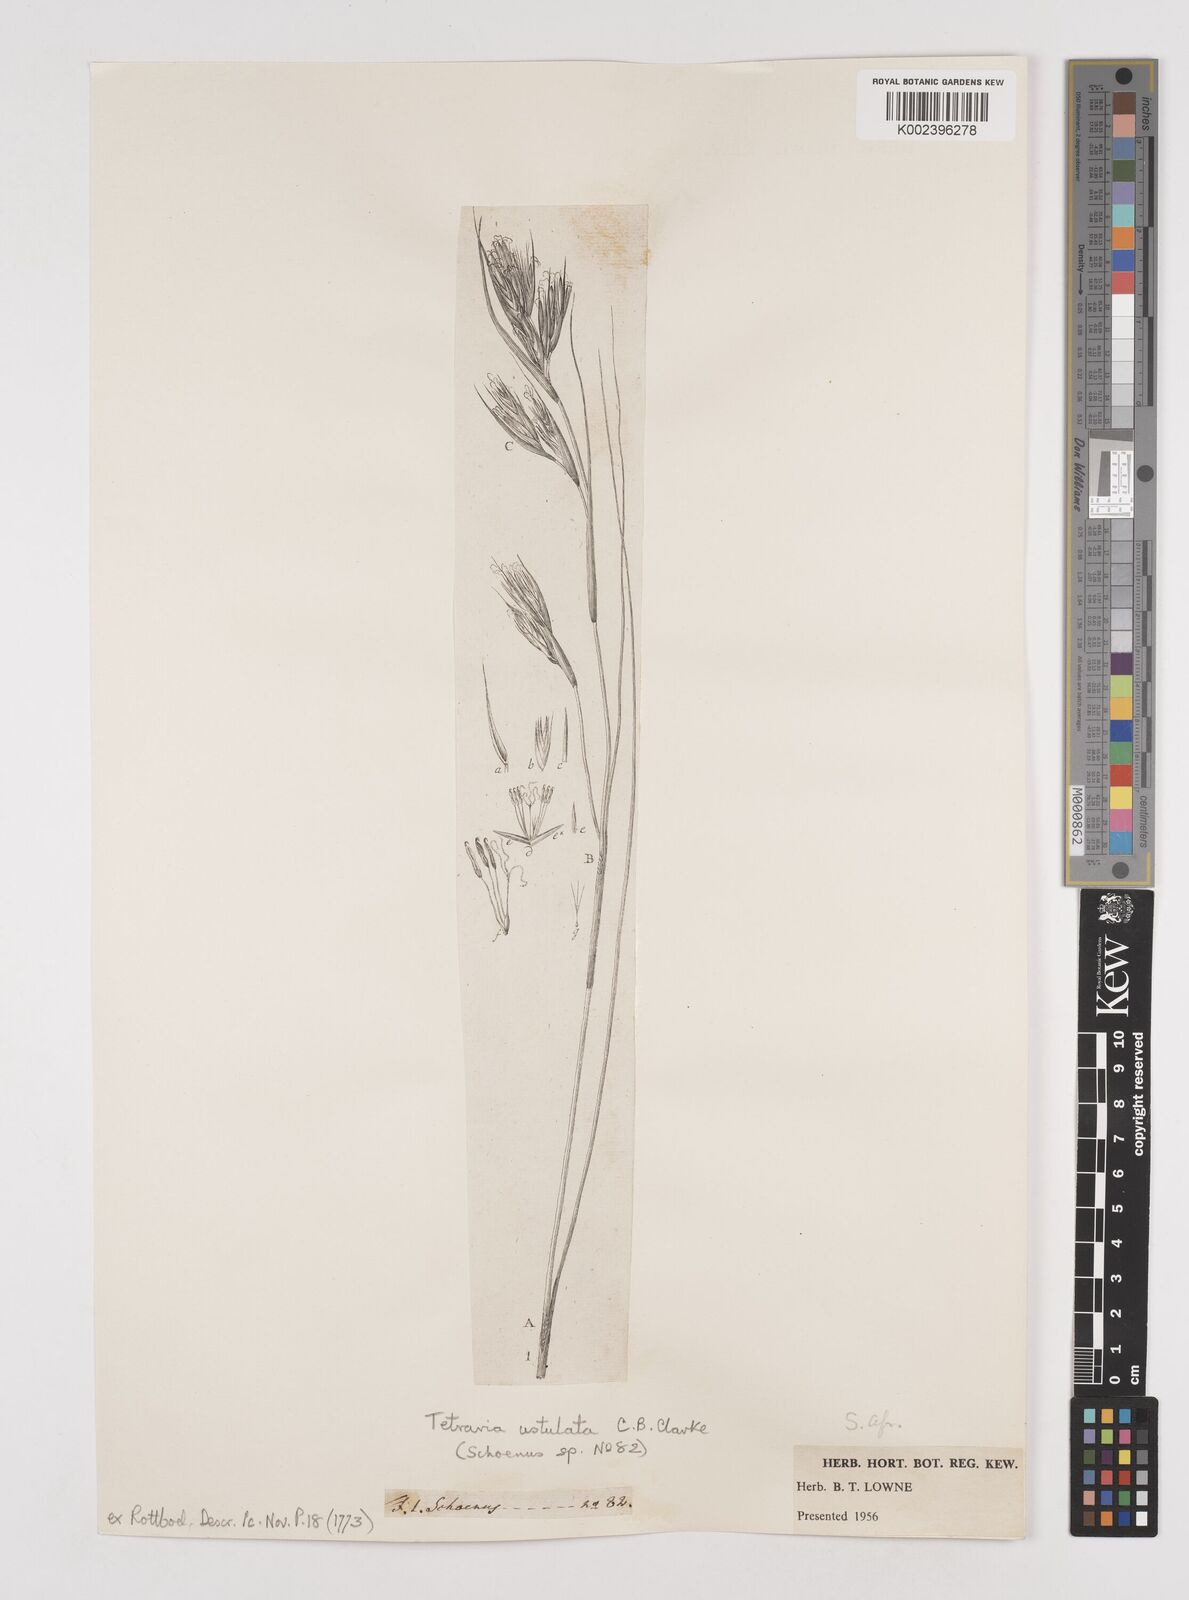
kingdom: Plantae
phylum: Tracheophyta
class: Liliopsida
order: Poales
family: Cyperaceae
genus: Tetraria
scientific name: Tetraria ustulata
